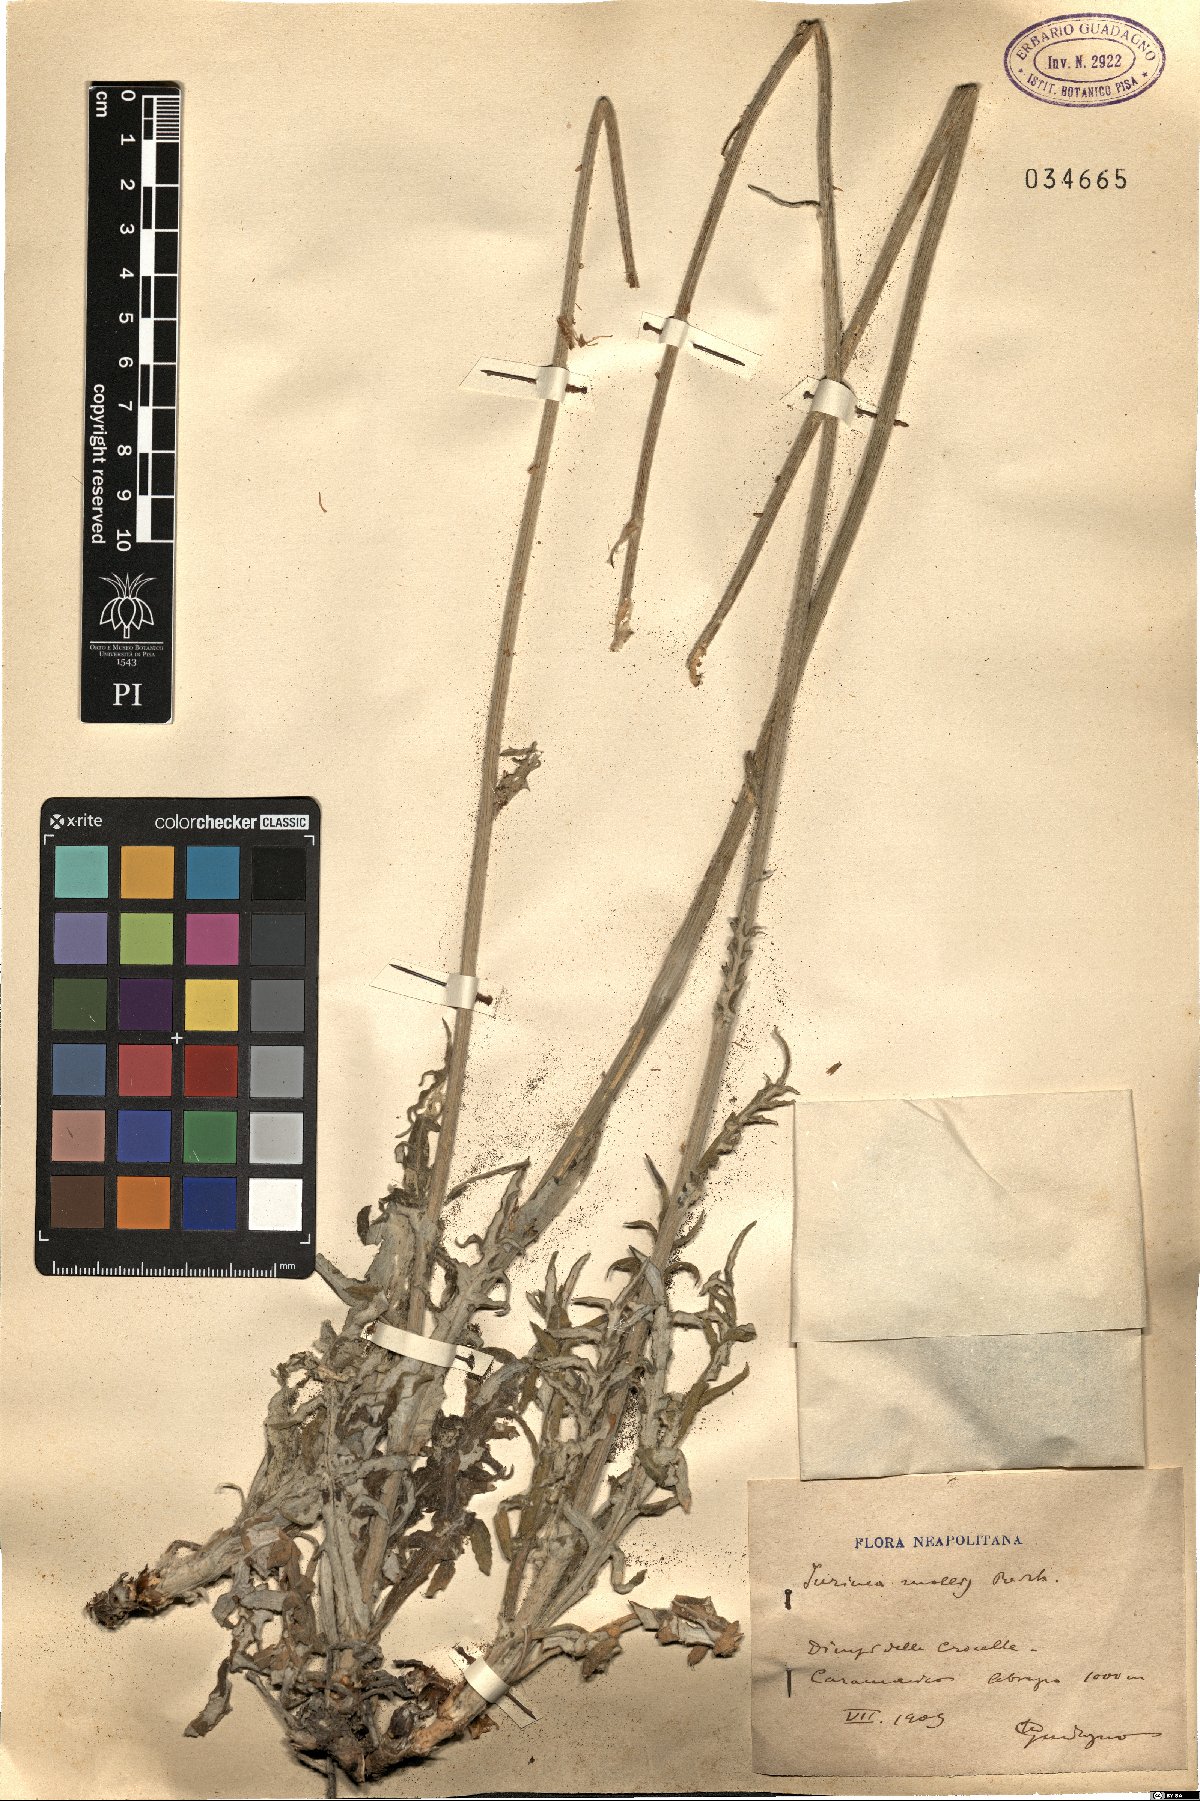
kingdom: Plantae
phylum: Tracheophyta
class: Magnoliopsida
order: Asterales
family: Asteraceae
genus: Jurinea
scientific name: Jurinea mollis
